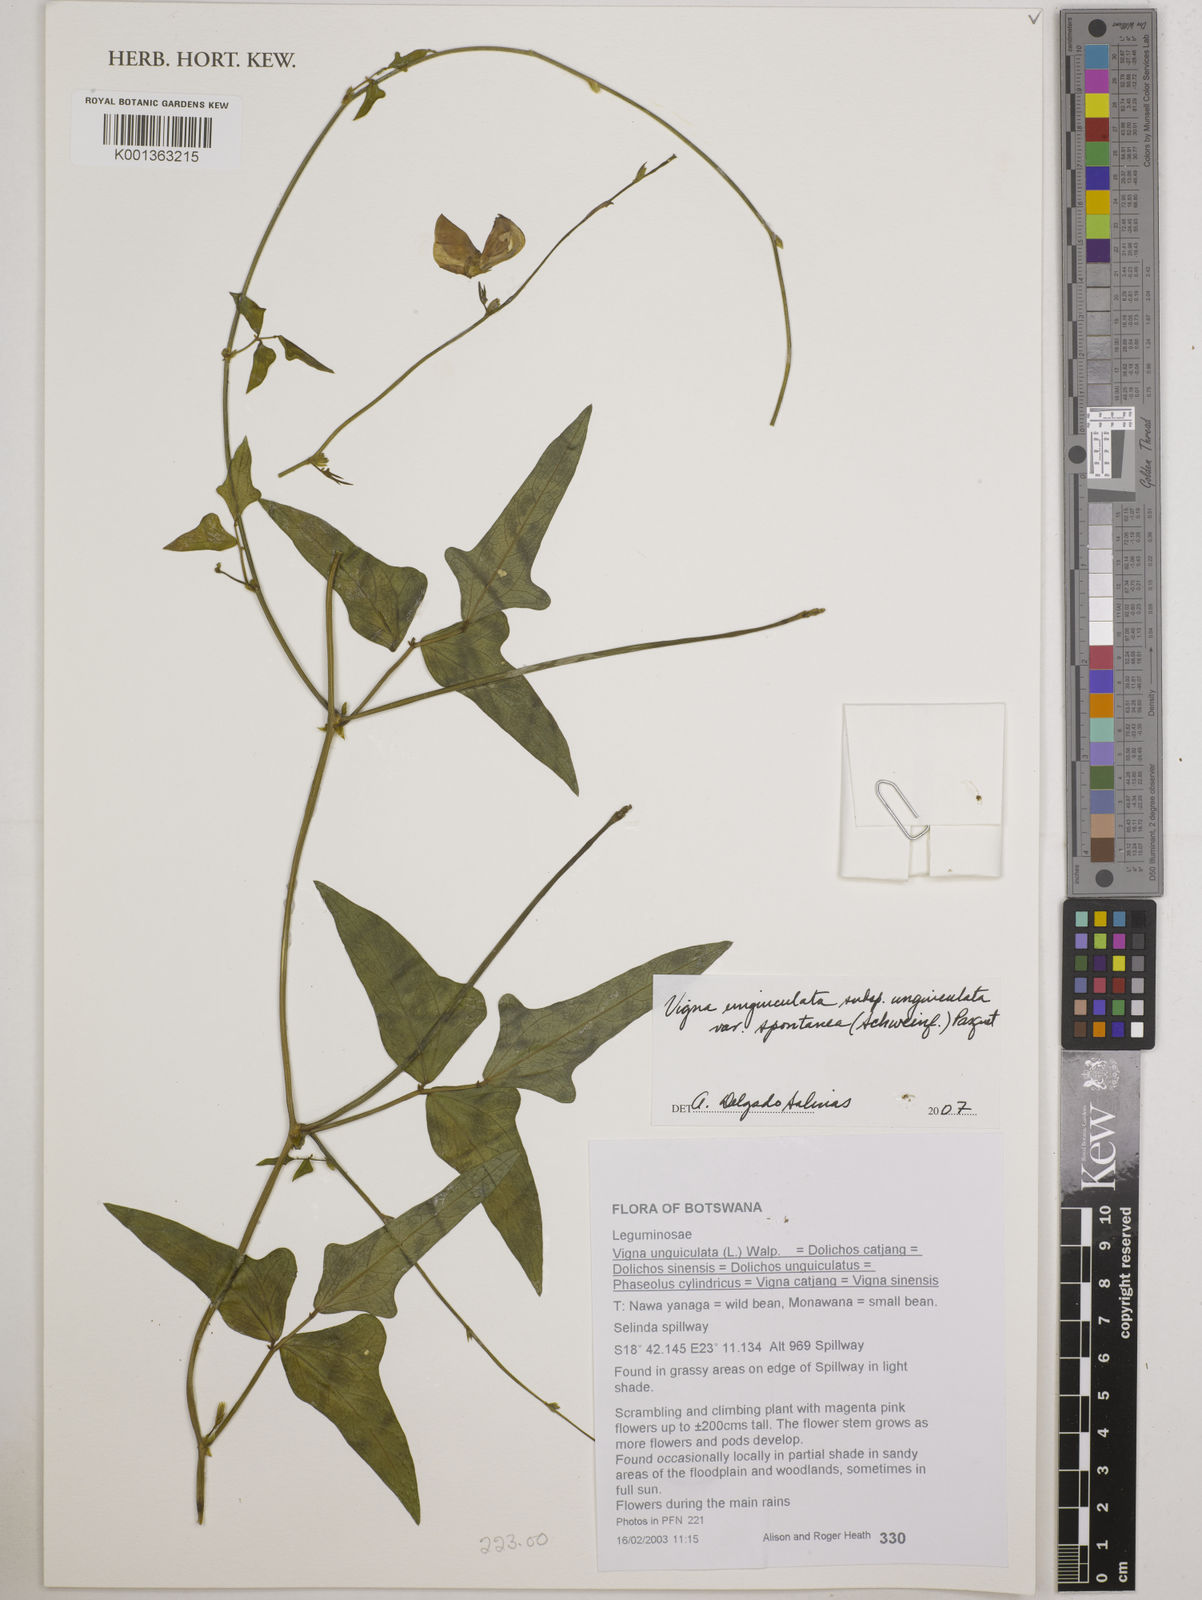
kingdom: Plantae
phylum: Tracheophyta
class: Magnoliopsida
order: Fabales
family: Fabaceae
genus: Vigna
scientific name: Vigna unguiculata
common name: Cowpea
